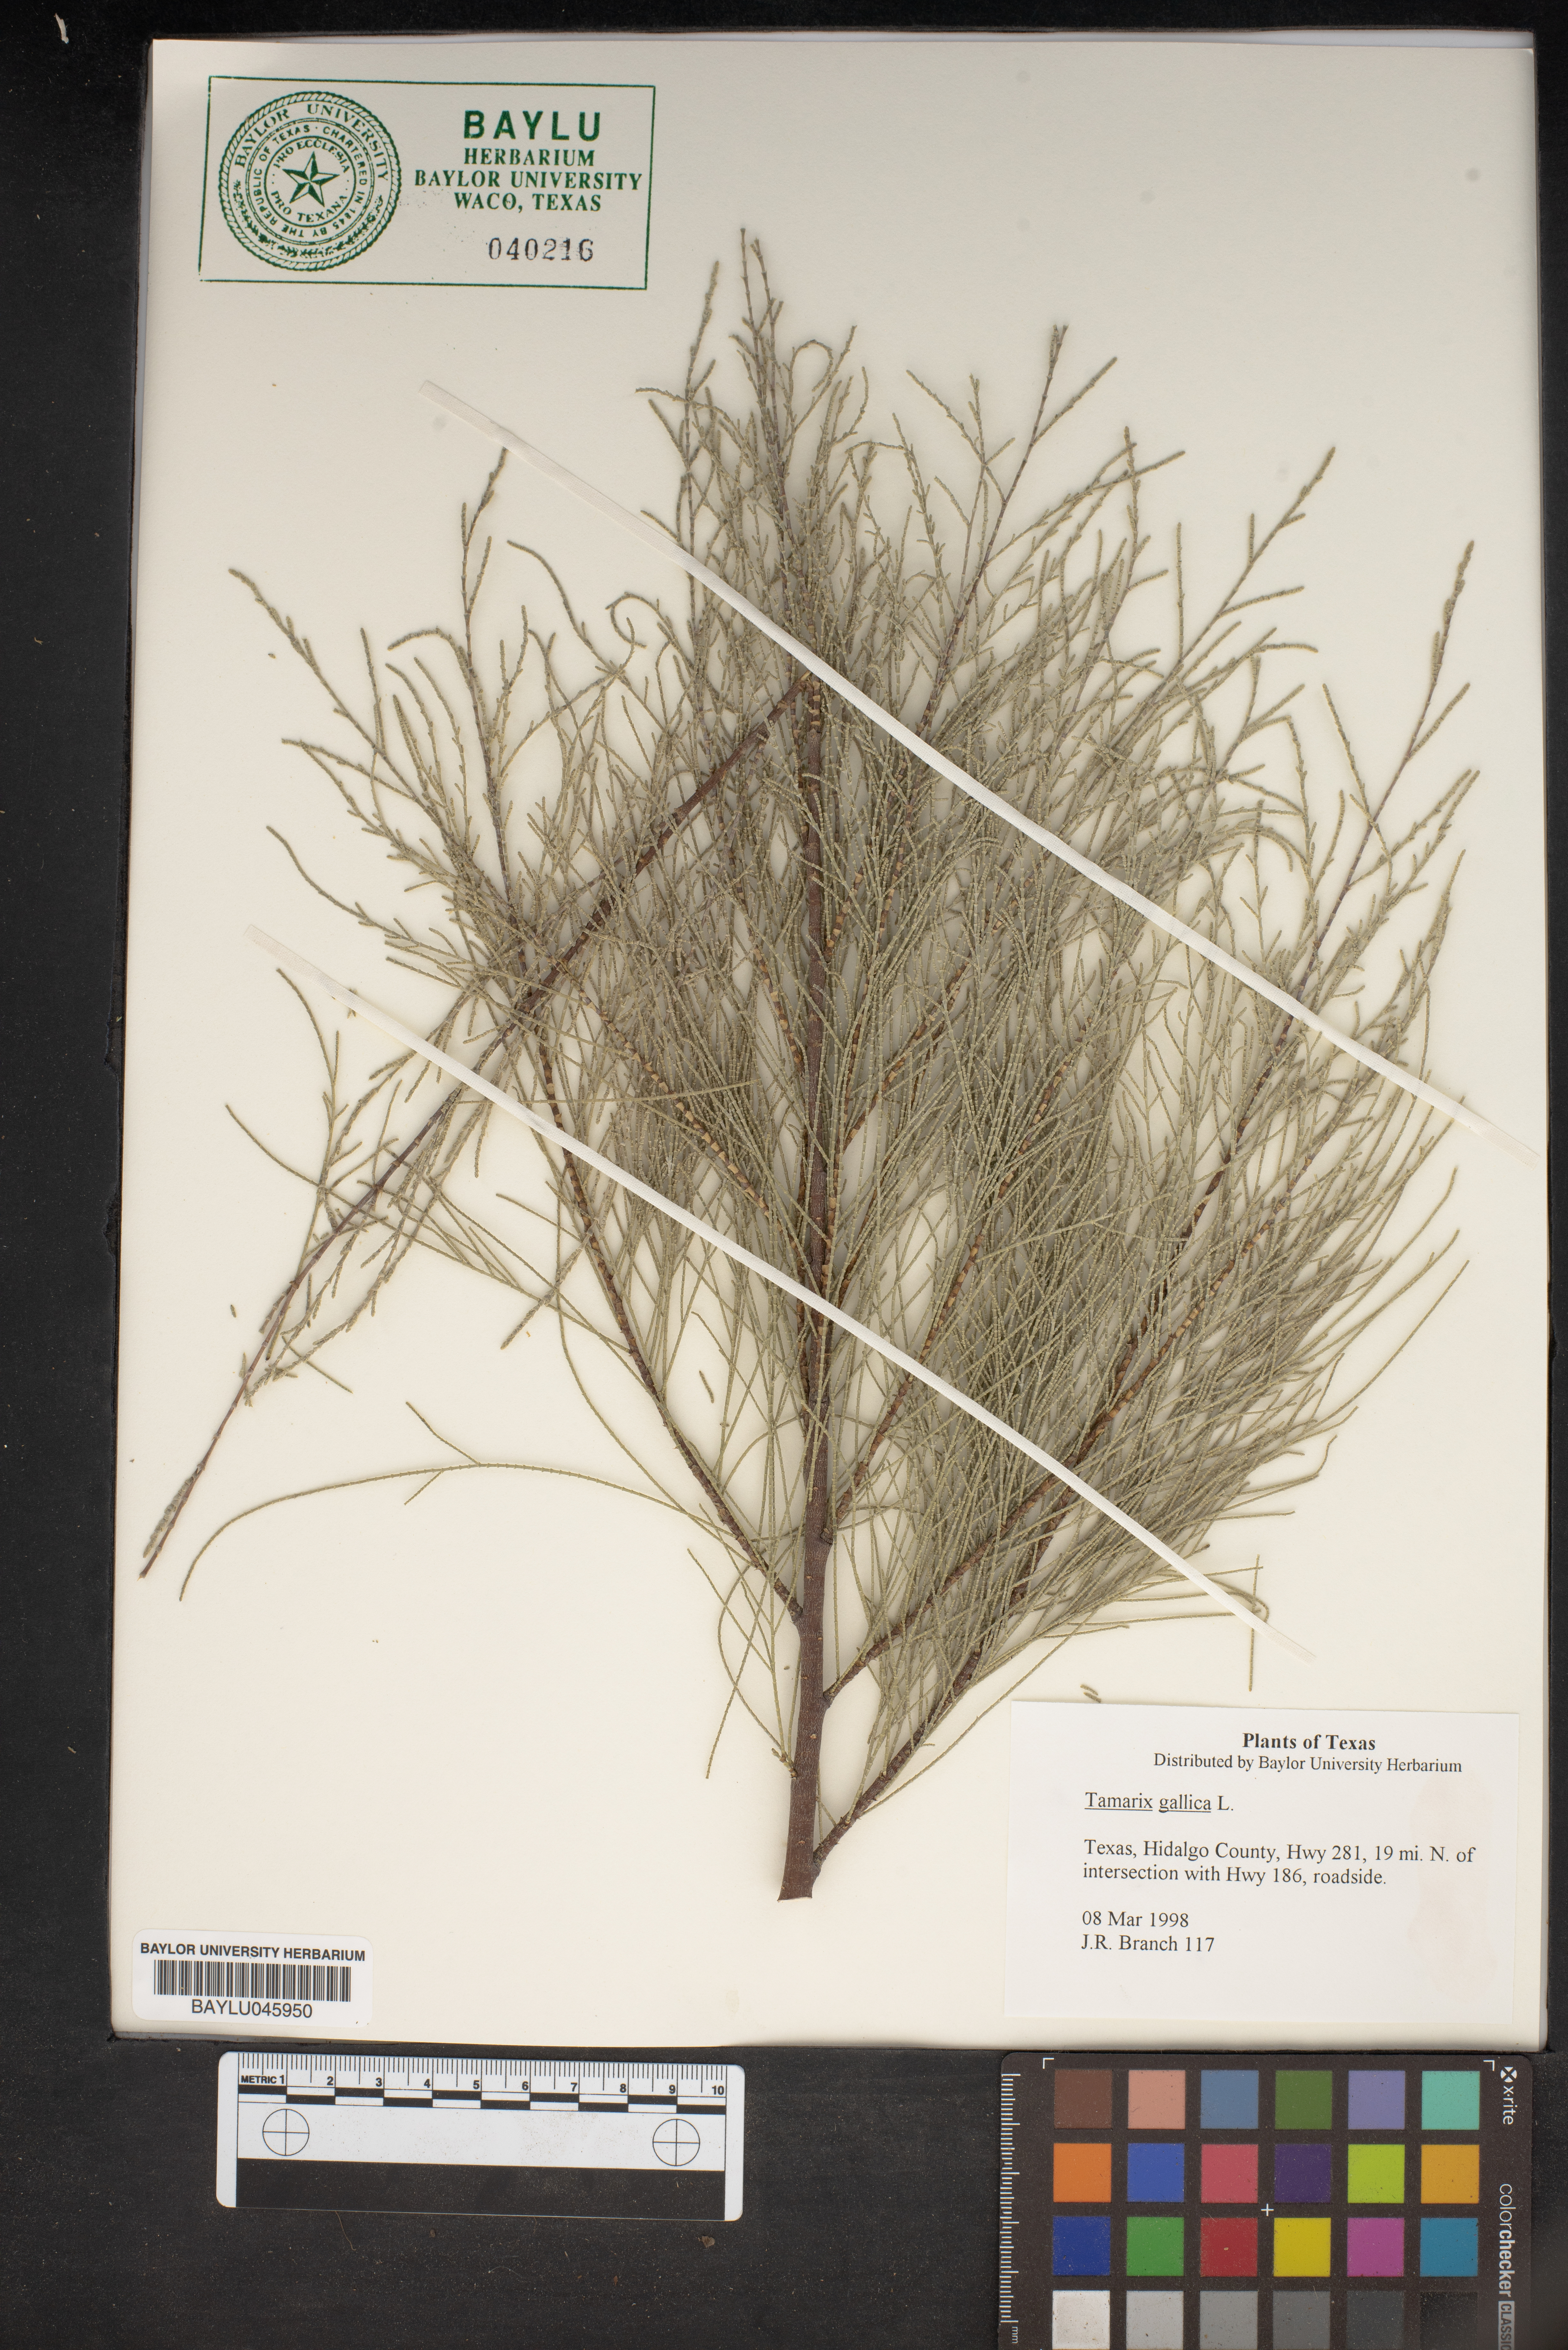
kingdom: Plantae
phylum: Tracheophyta
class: Magnoliopsida
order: Caryophyllales
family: Tamaricaceae
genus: Tamarix
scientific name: Tamarix gallica
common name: Tamarisk
